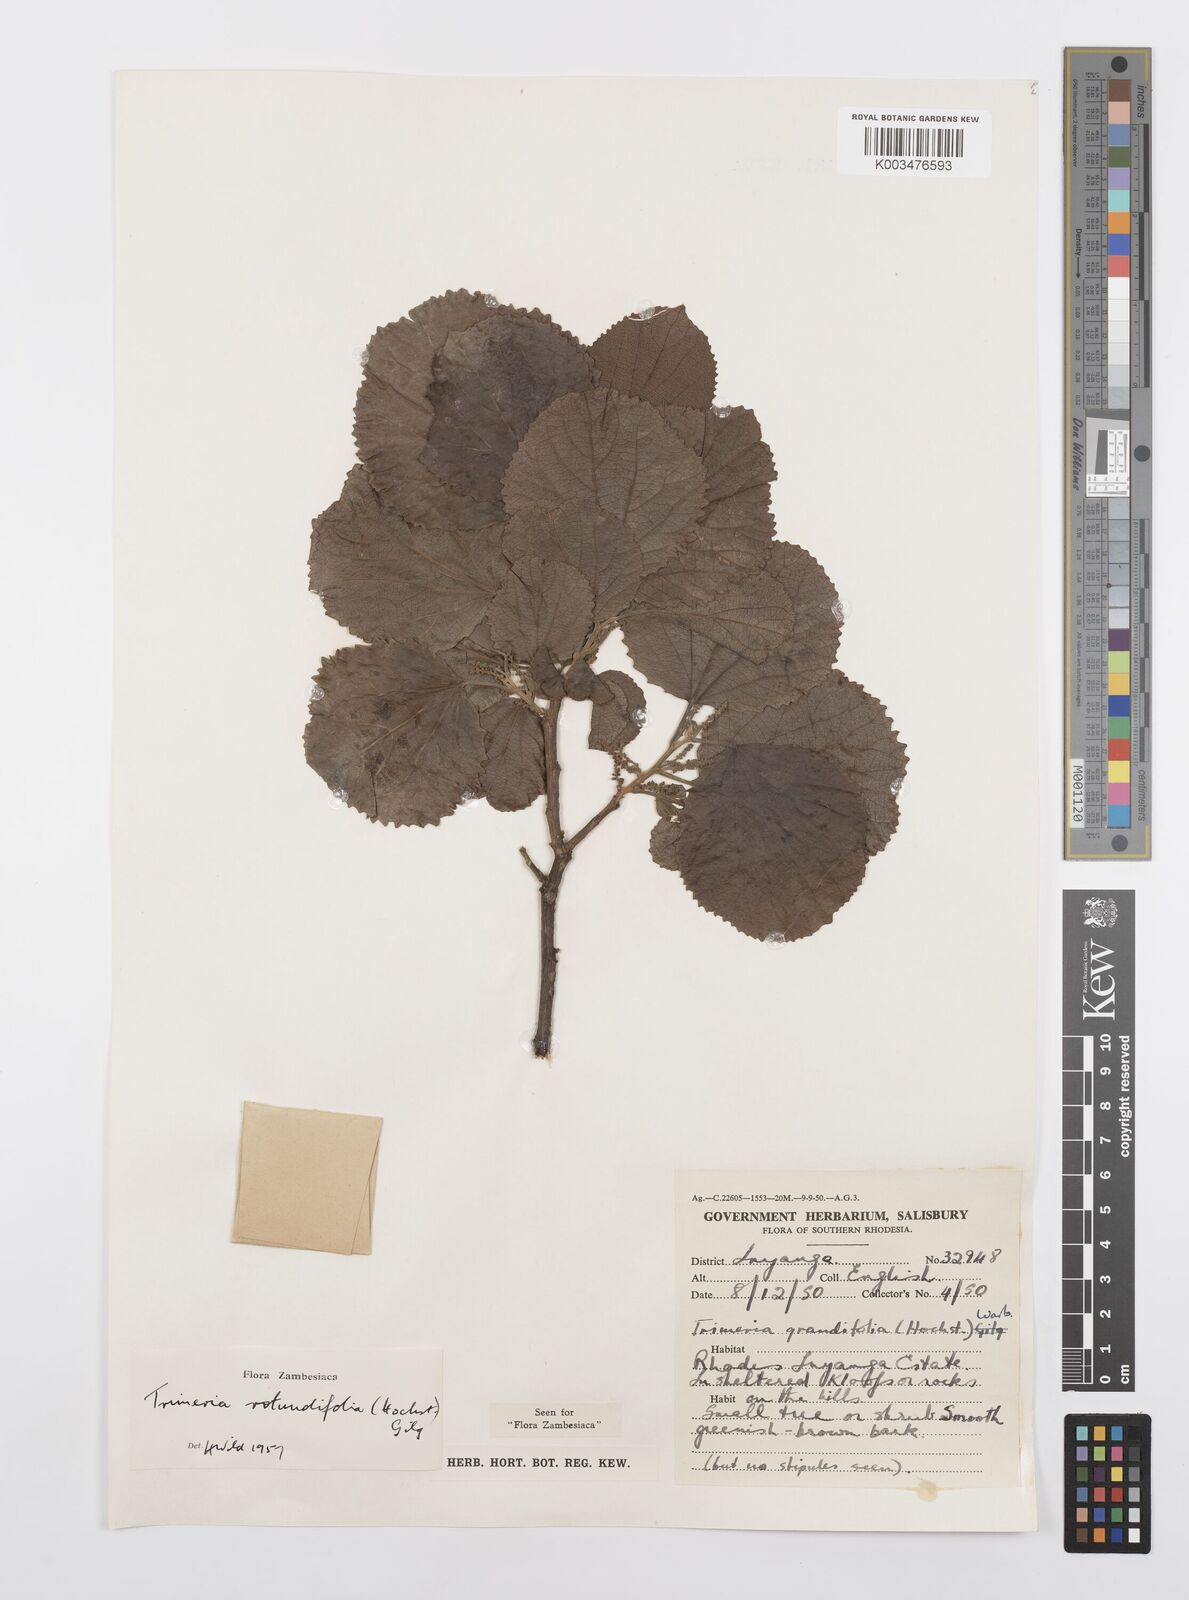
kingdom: Plantae
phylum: Tracheophyta
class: Magnoliopsida
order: Malpighiales
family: Salicaceae
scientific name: Salicaceae
